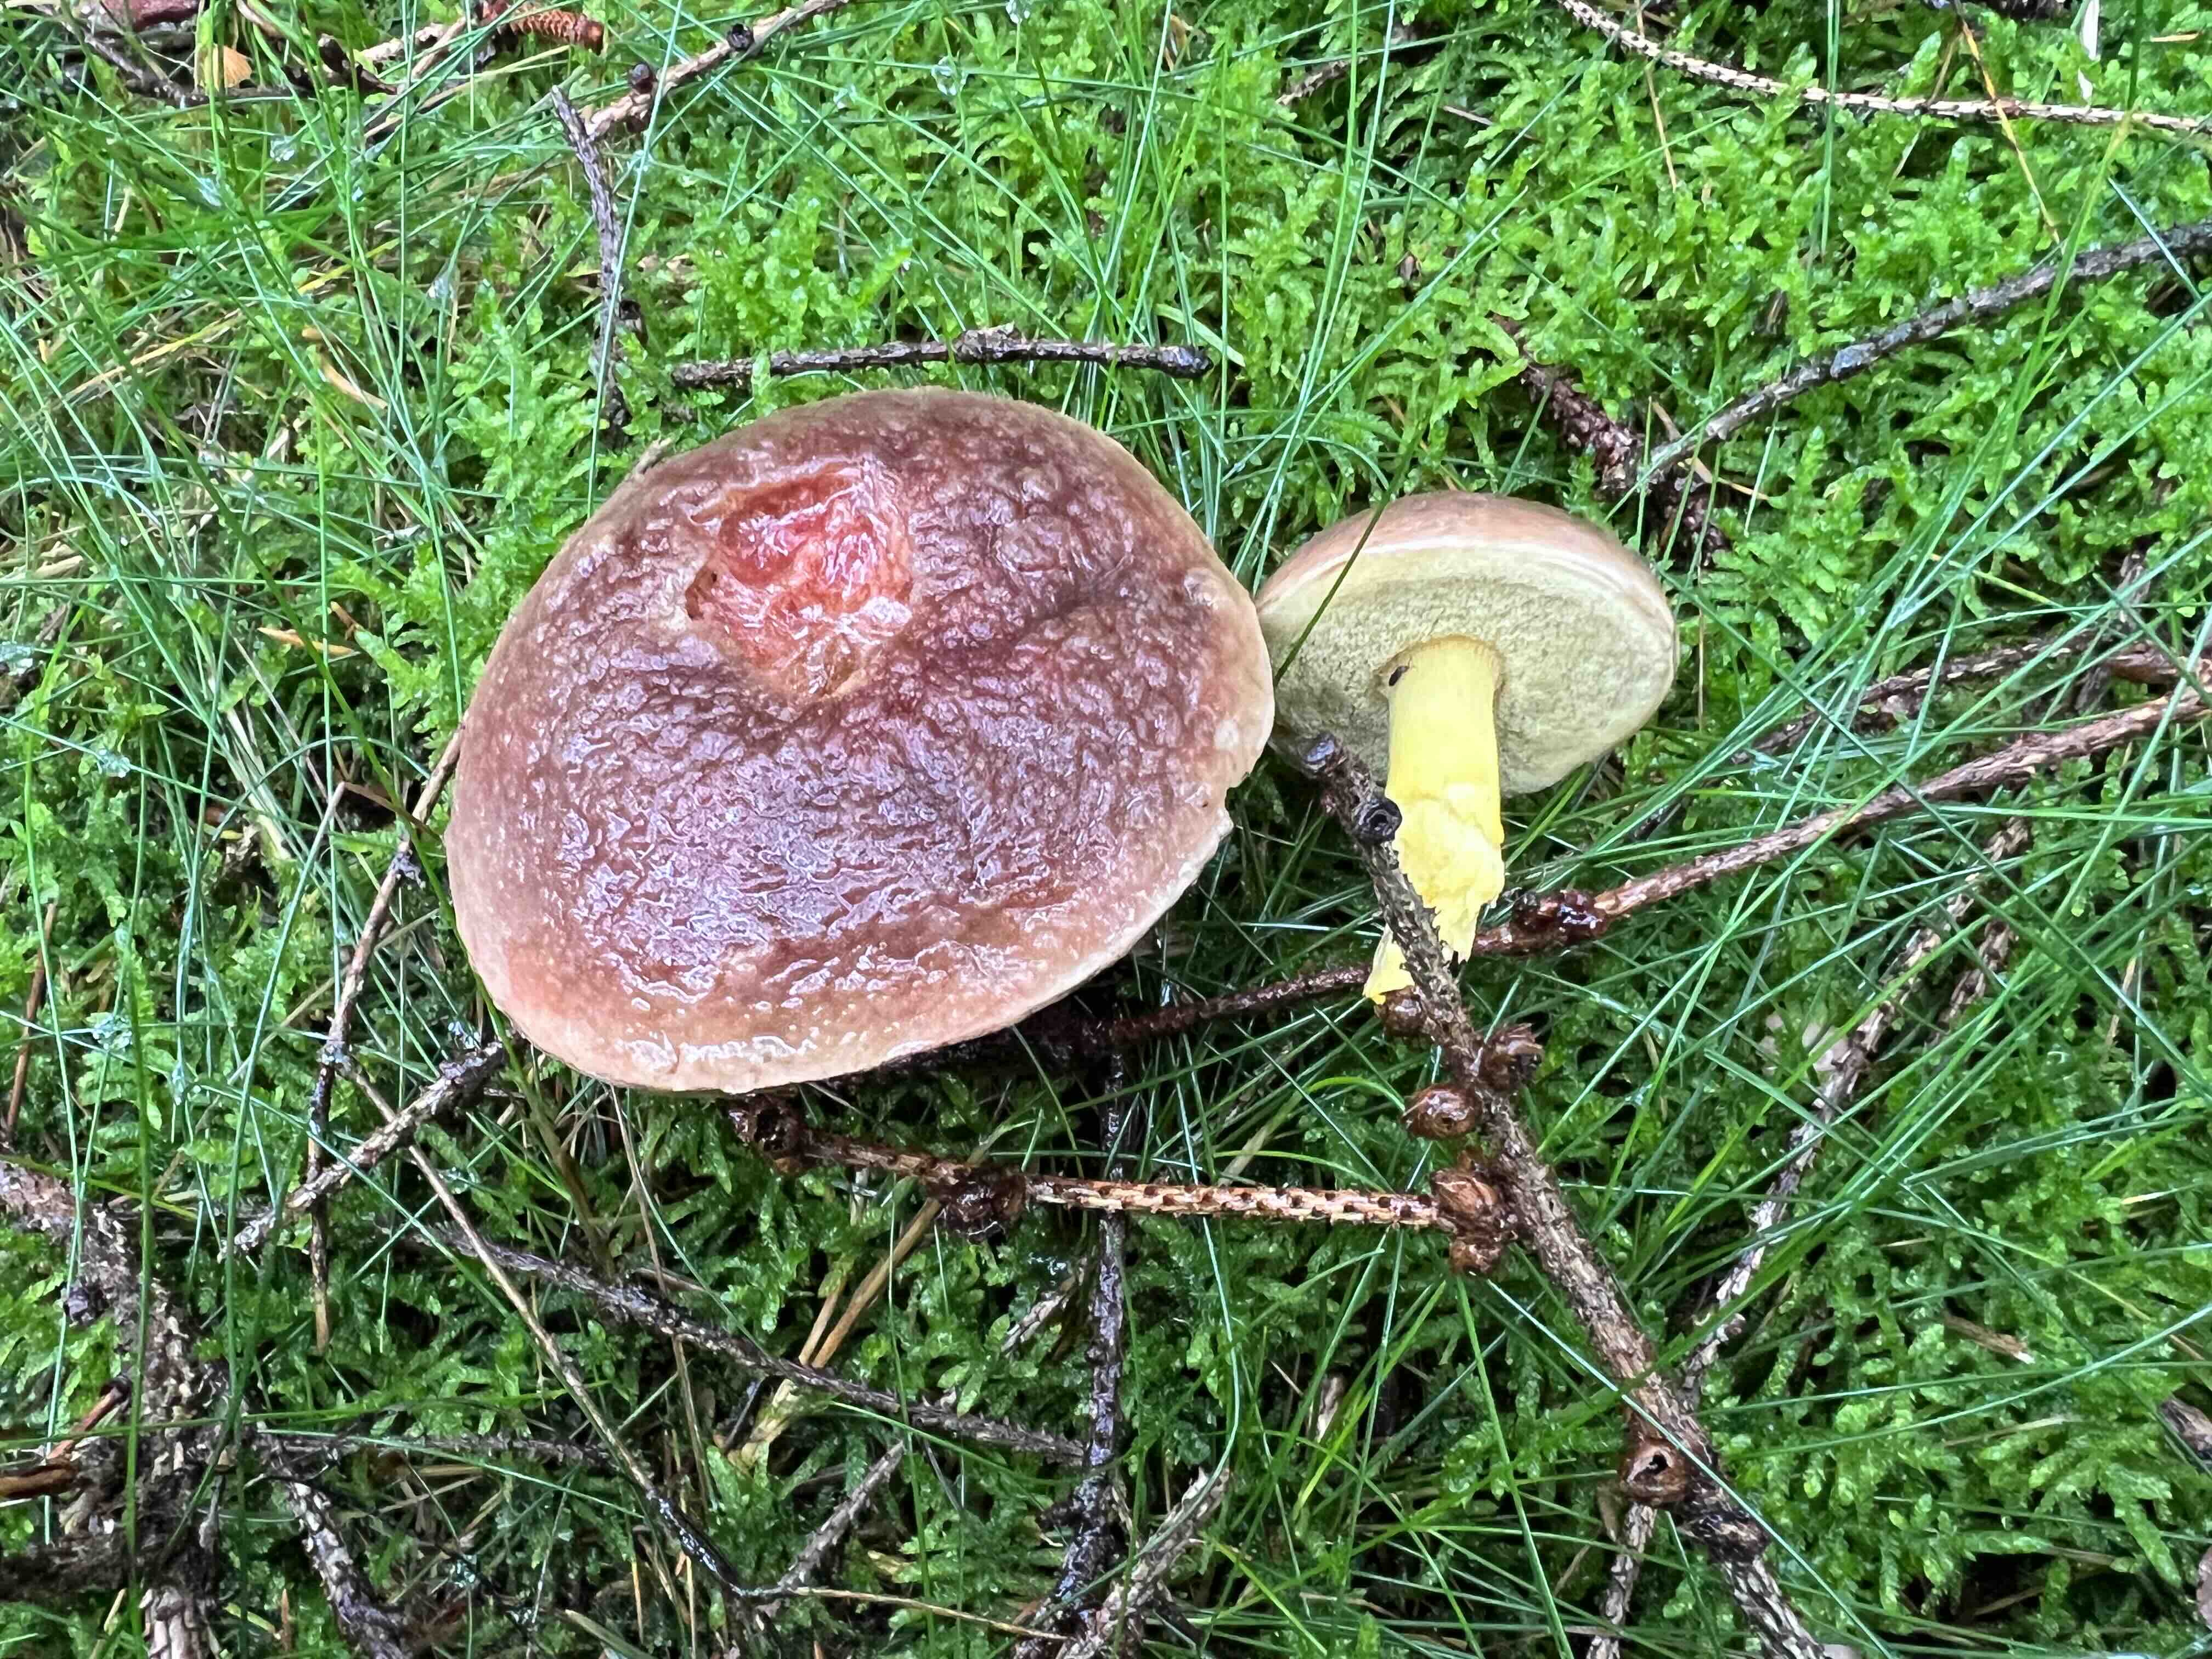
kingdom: Fungi
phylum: Basidiomycota
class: Agaricomycetes
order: Boletales
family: Boletaceae
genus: Xerocomellus
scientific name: Xerocomellus pruinatus
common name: dugget rørhat
